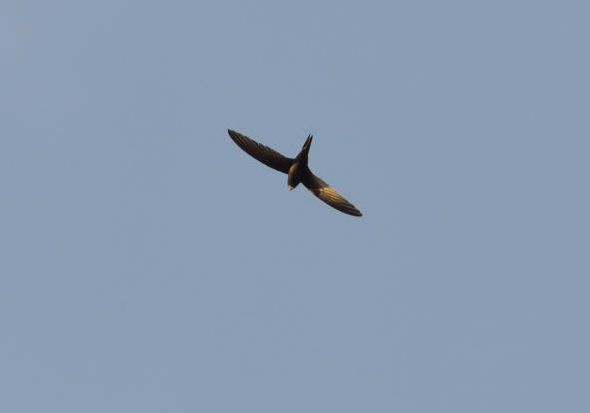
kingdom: Animalia
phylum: Chordata
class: Aves
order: Apodiformes
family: Apodidae
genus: Apus
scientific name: Apus apus
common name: Common swift
